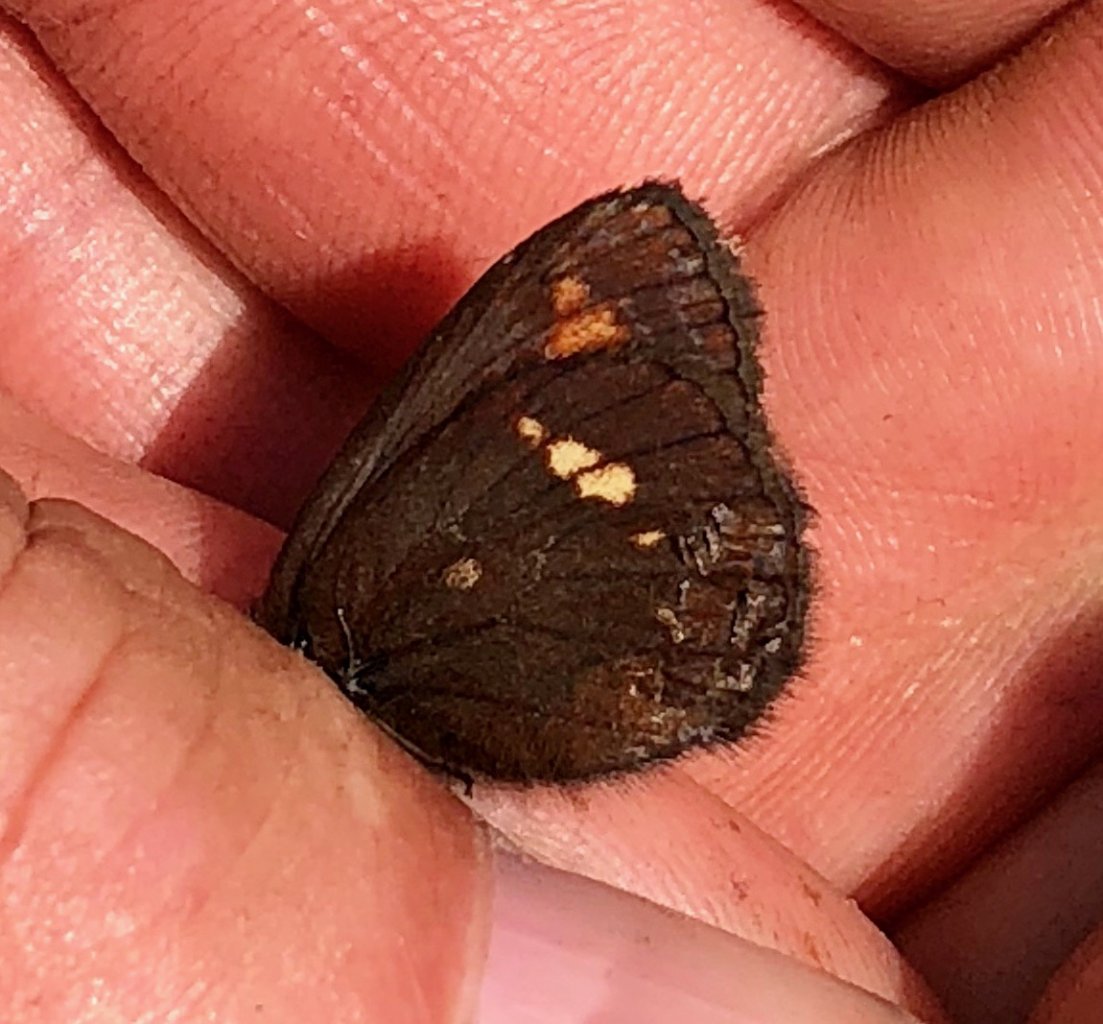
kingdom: Animalia
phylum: Arthropoda
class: Insecta
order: Lepidoptera
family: Nymphalidae
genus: Erebia
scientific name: Erebia pawloskii
